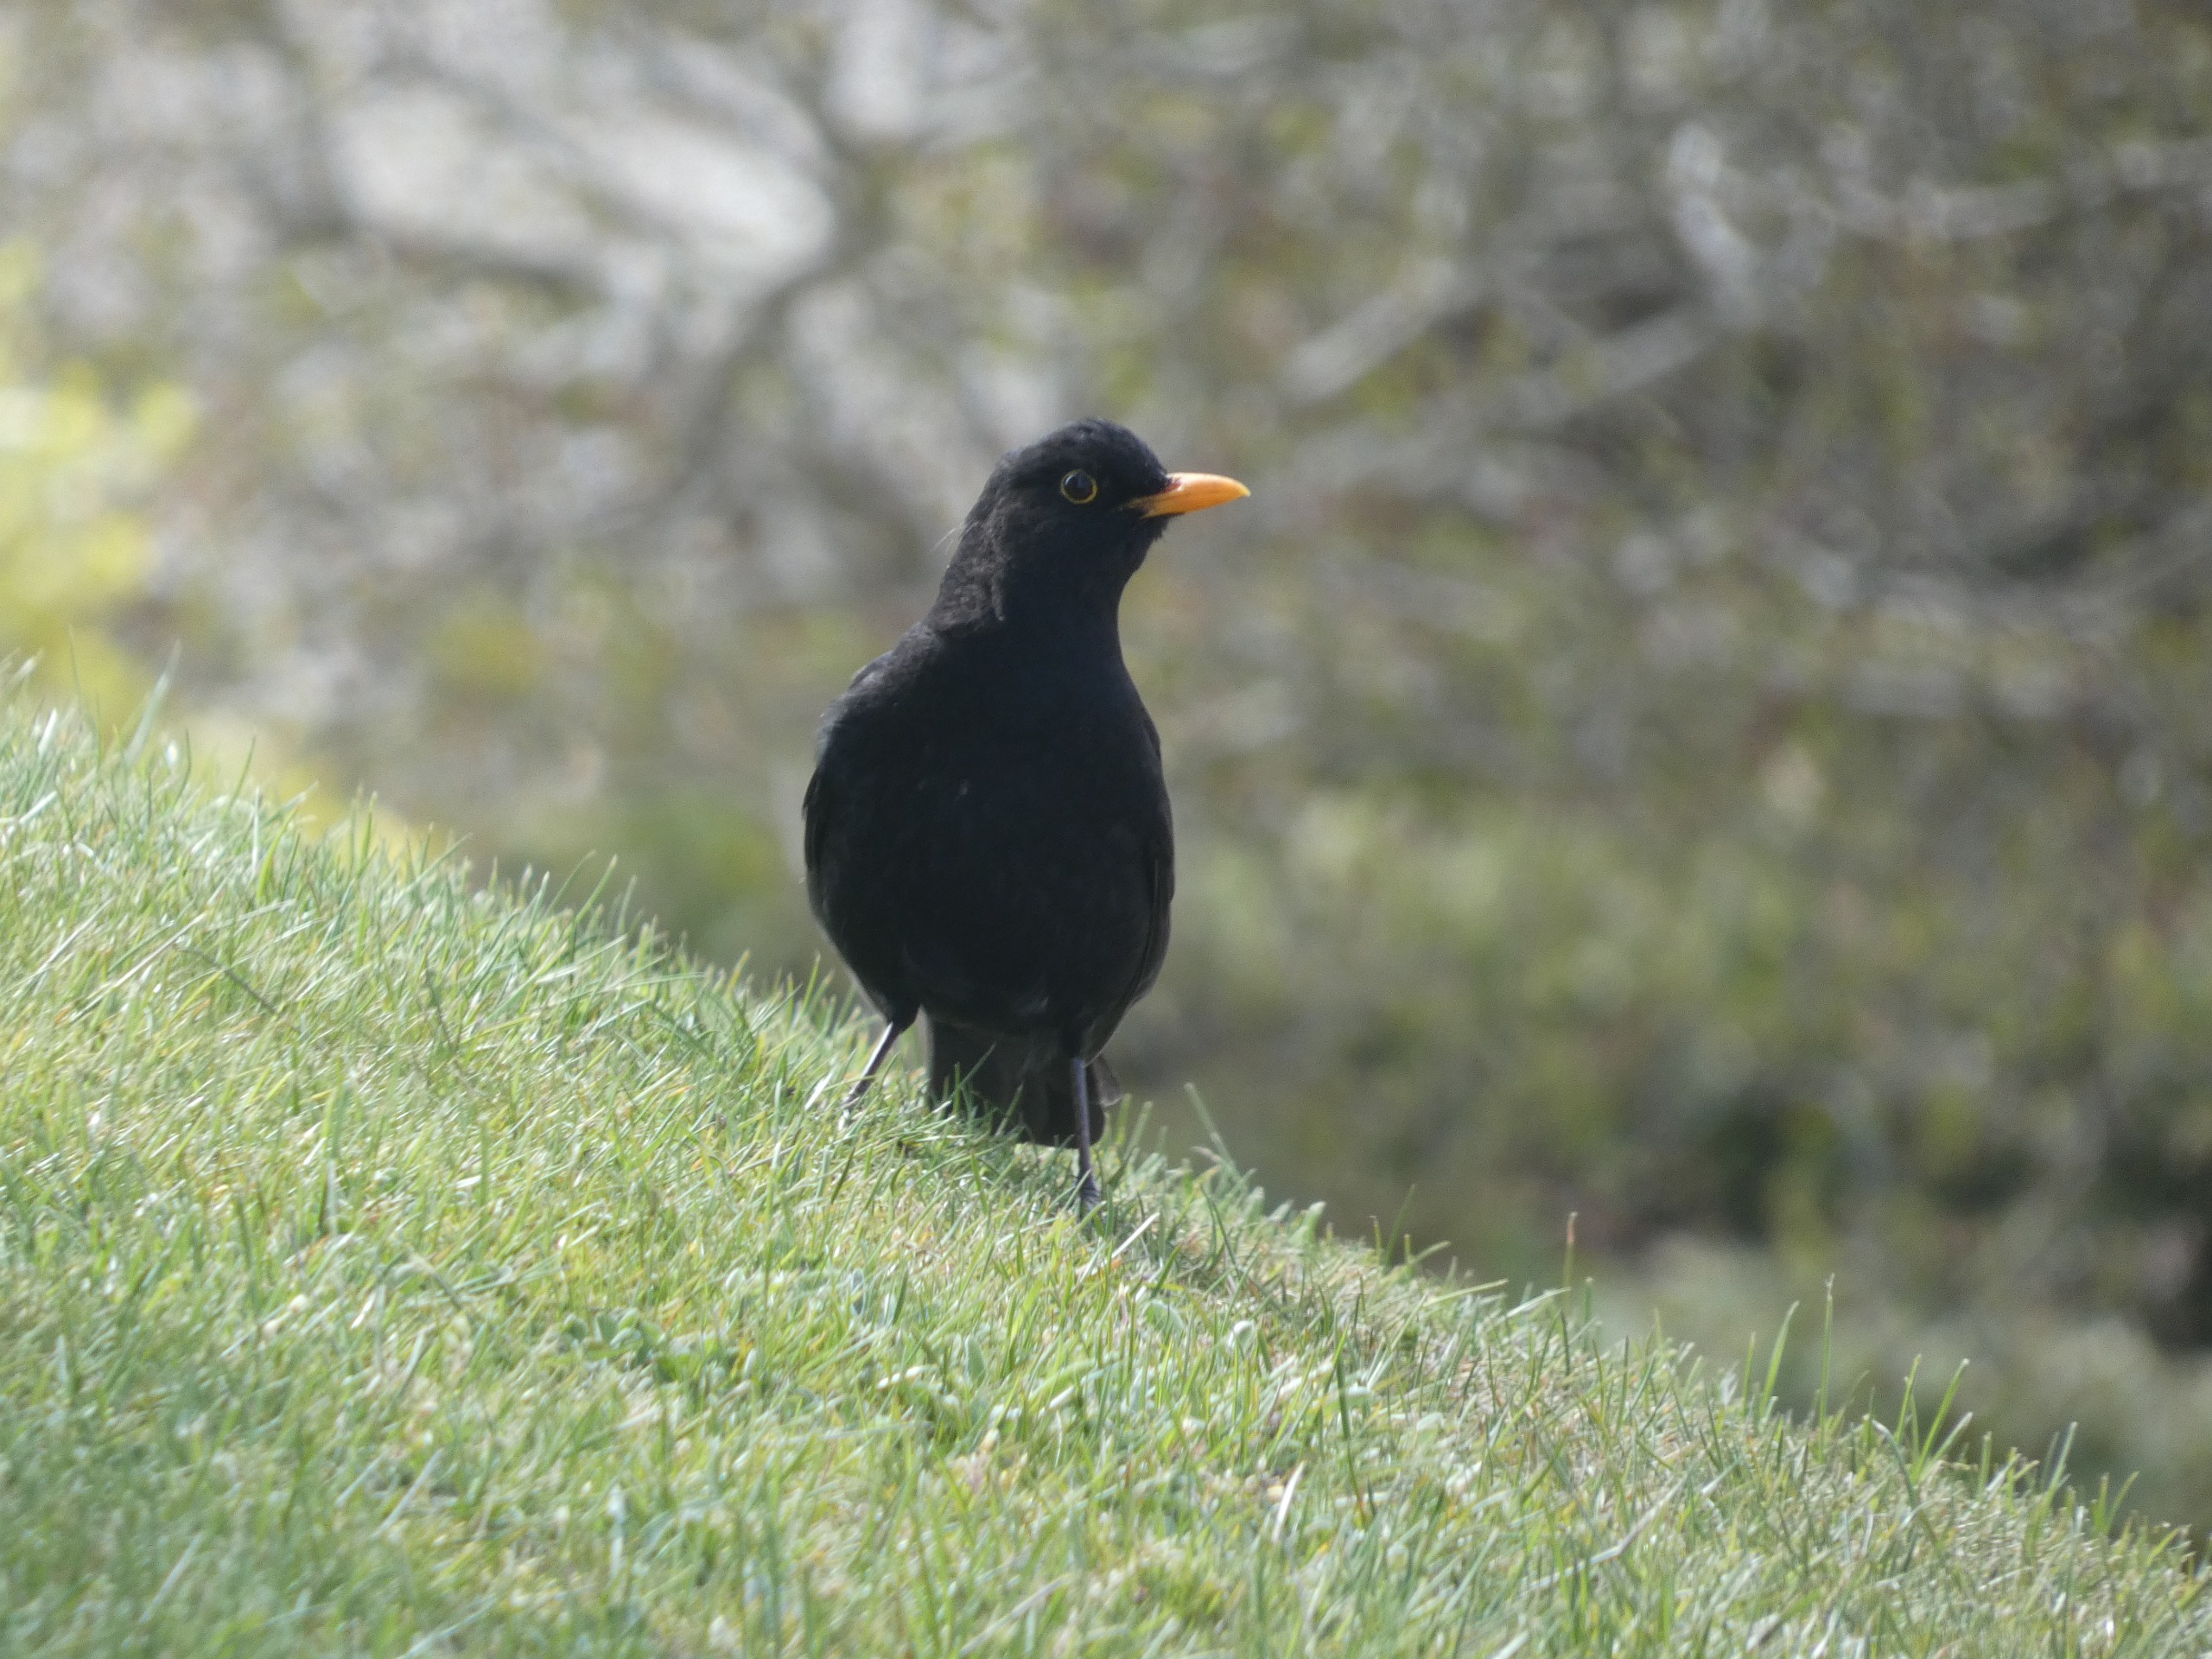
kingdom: Animalia
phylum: Chordata
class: Aves
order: Passeriformes
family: Turdidae
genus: Turdus
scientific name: Turdus merula
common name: Solsort
